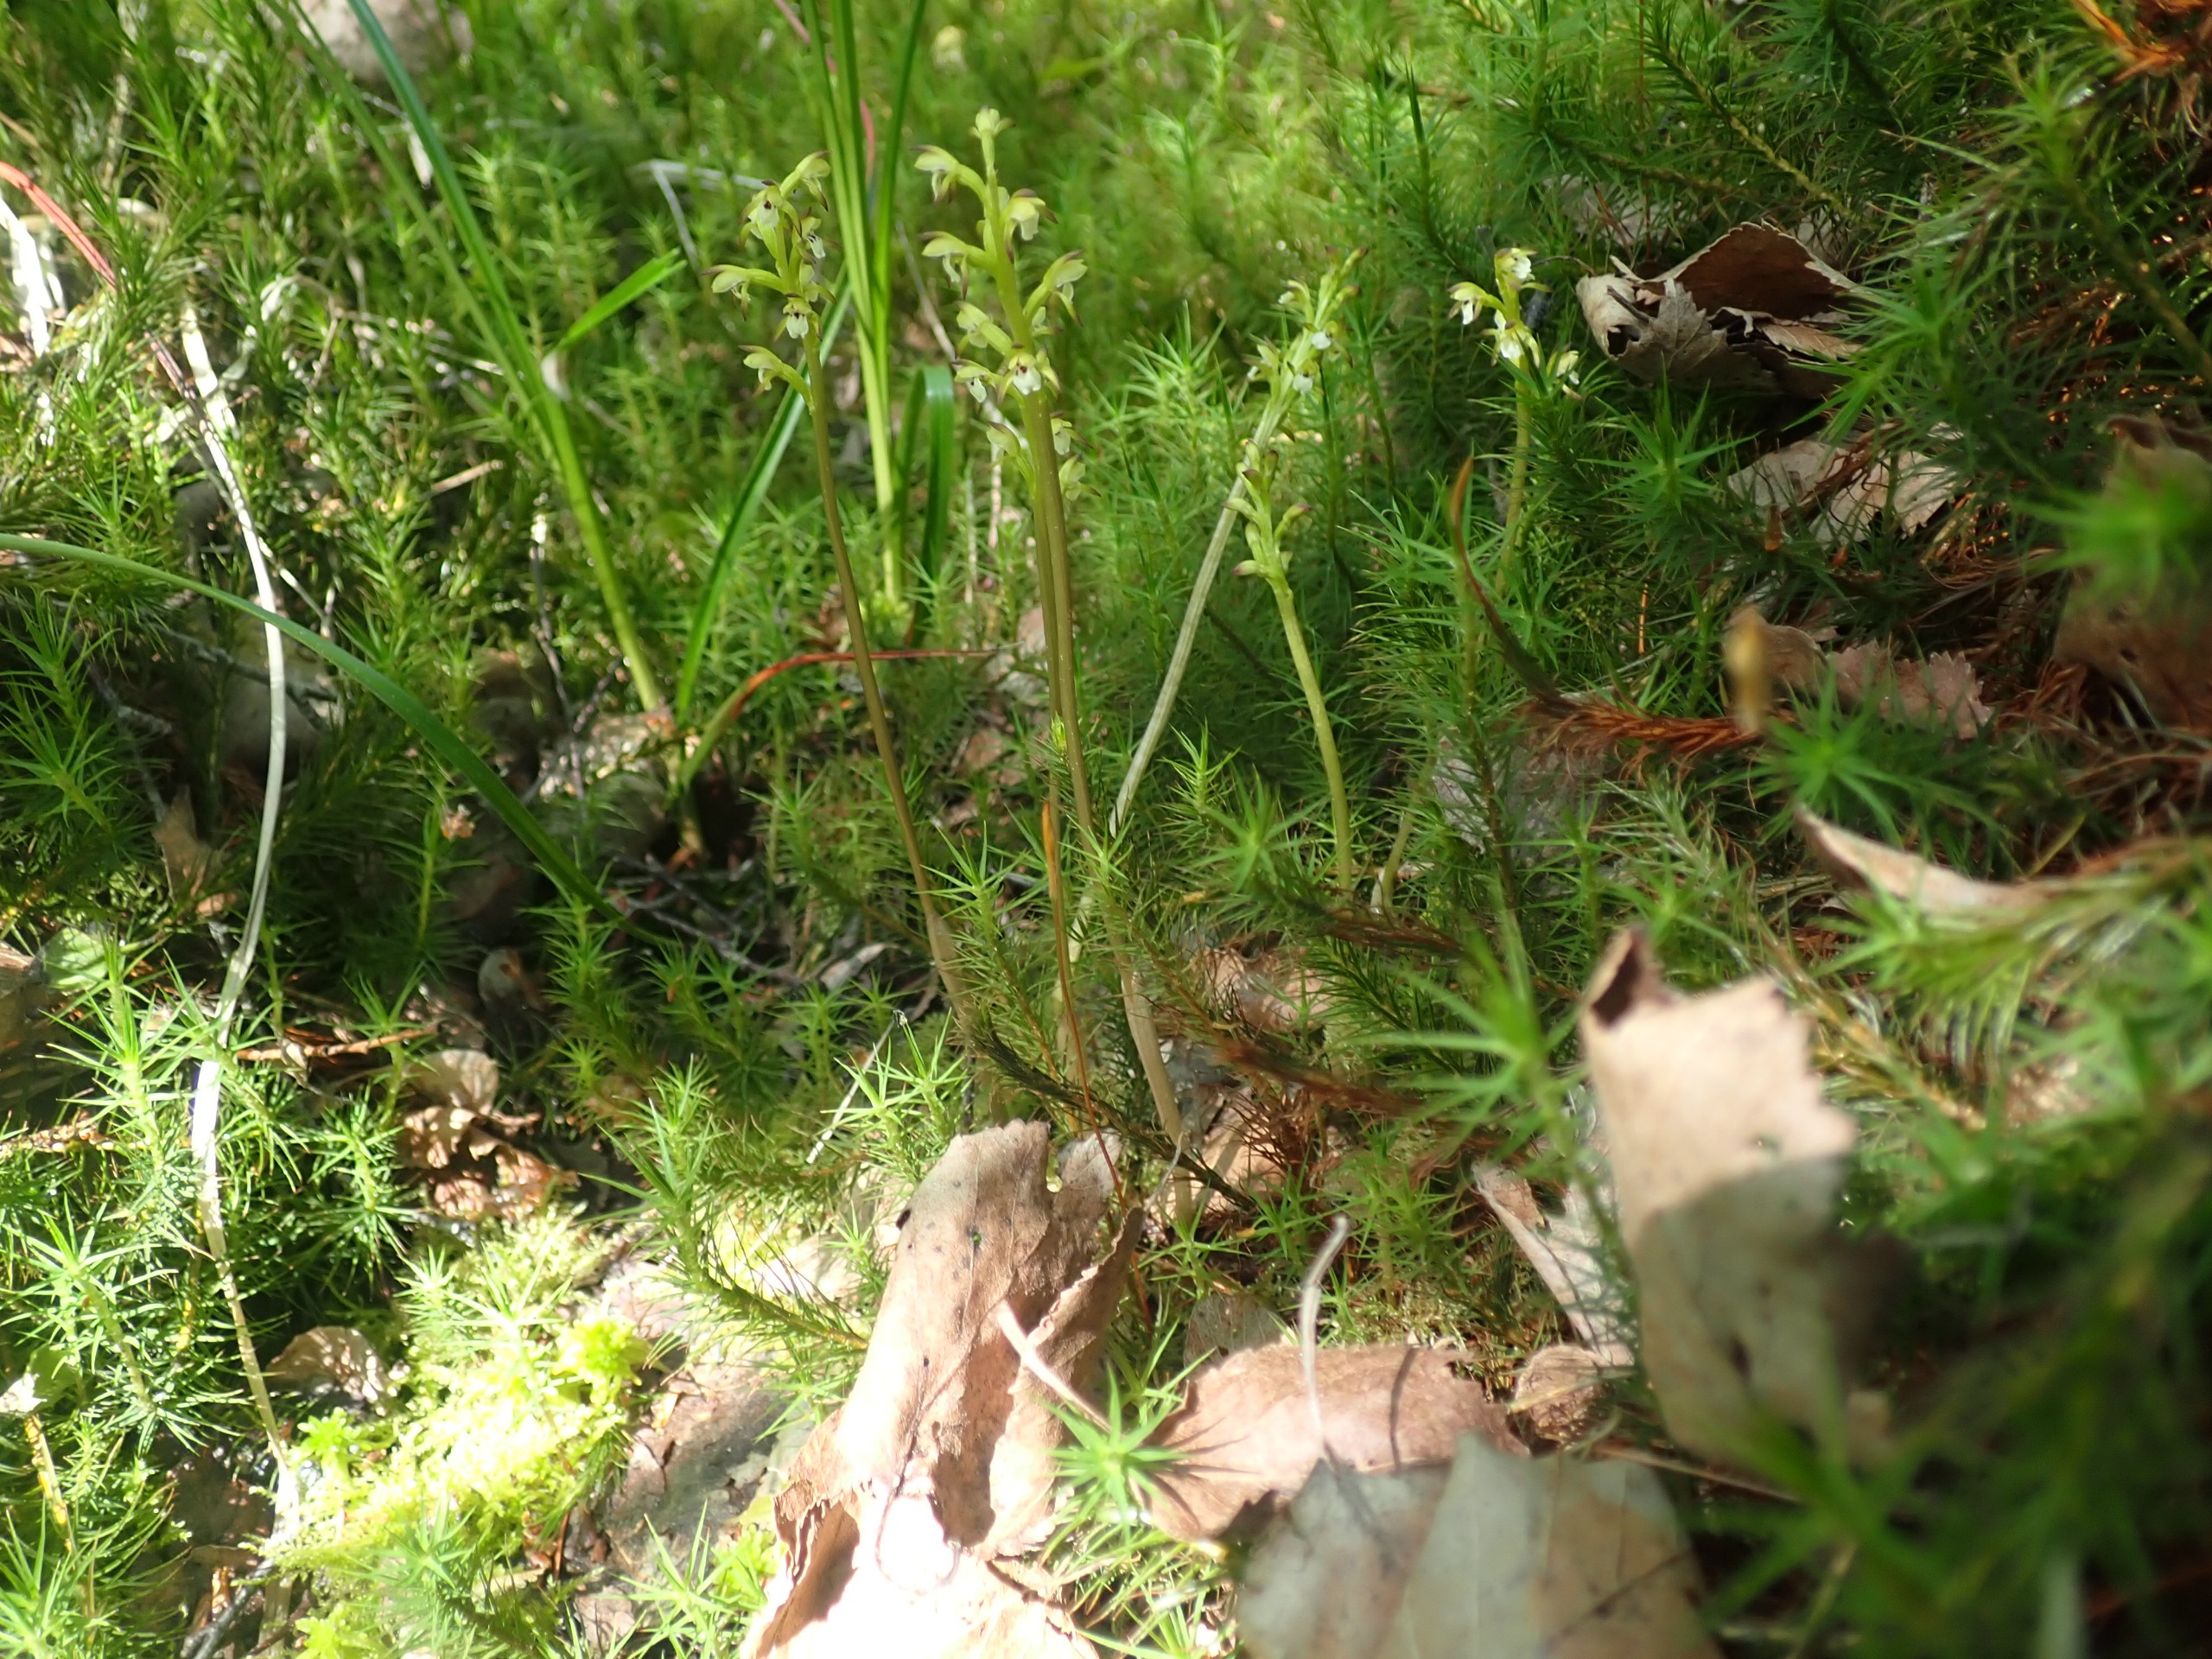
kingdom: Plantae
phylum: Tracheophyta
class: Liliopsida
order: Asparagales
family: Orchidaceae
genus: Corallorhiza
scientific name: Corallorhiza trifida
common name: Koralrod
